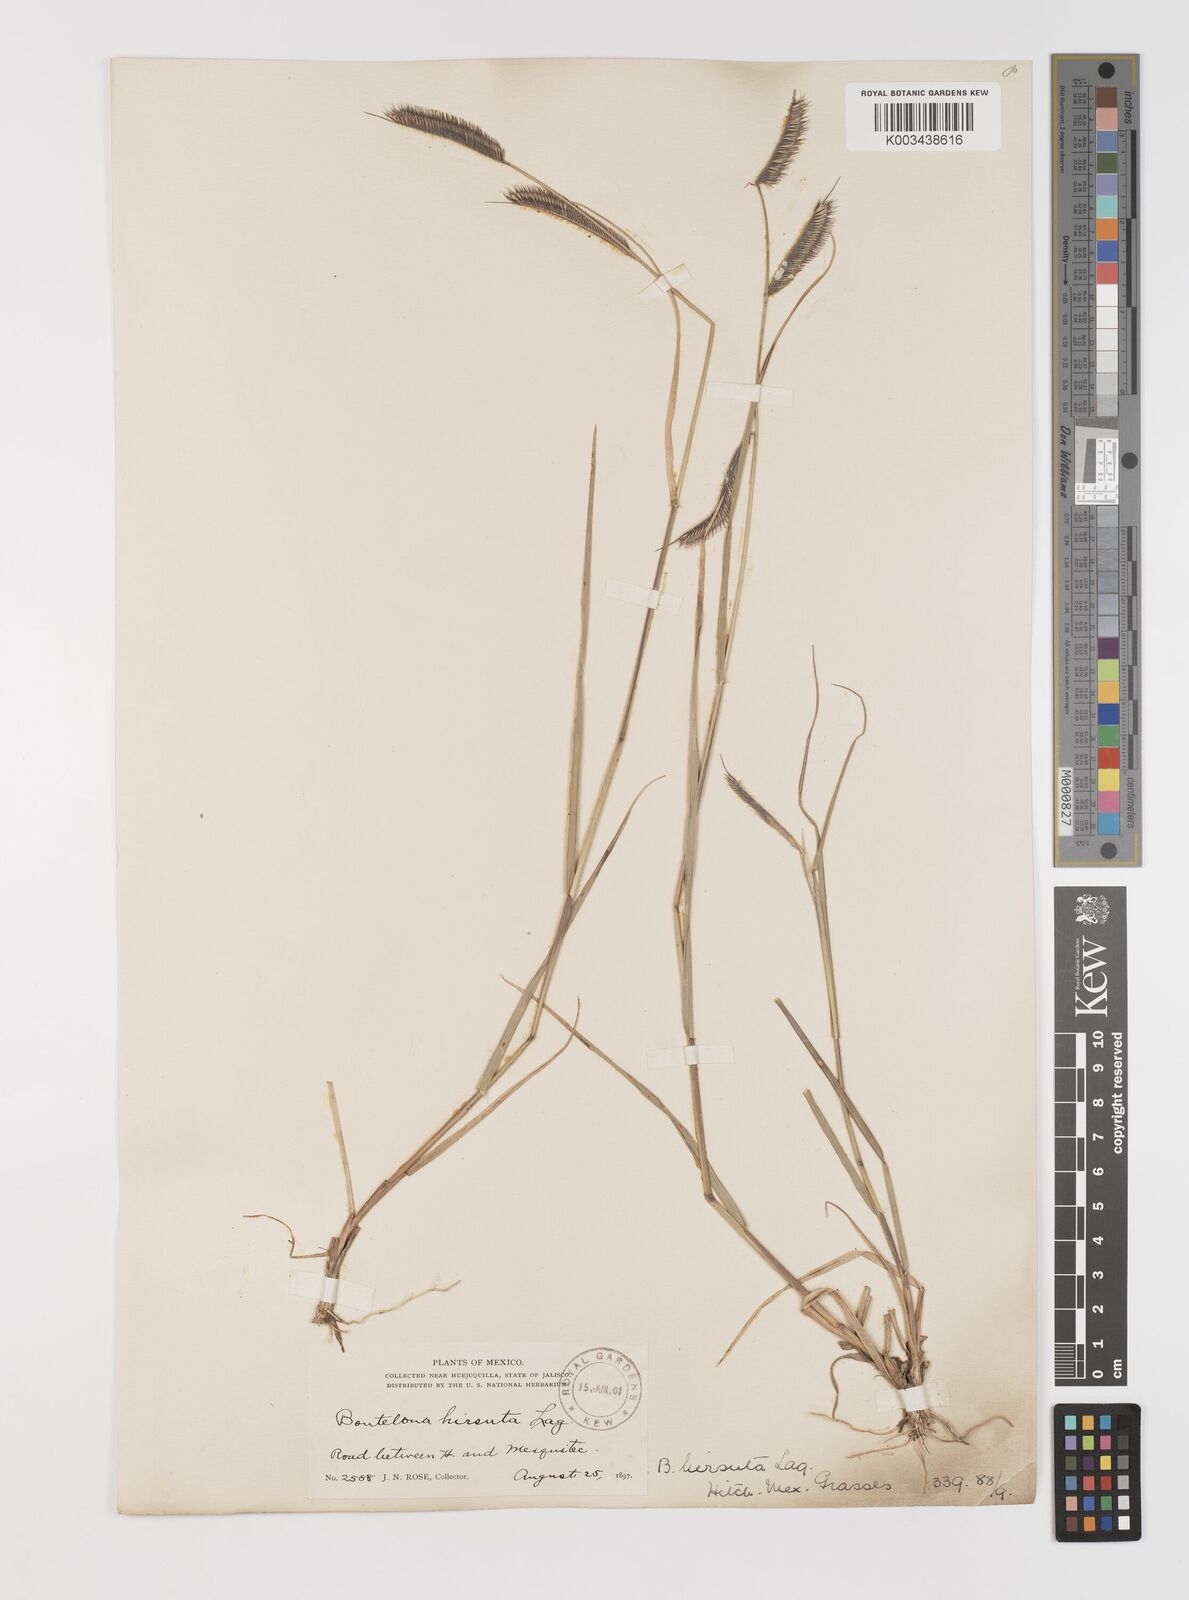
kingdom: Plantae
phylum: Tracheophyta
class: Liliopsida
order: Poales
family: Poaceae
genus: Bouteloua
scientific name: Bouteloua hirsuta
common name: Hairy grama
